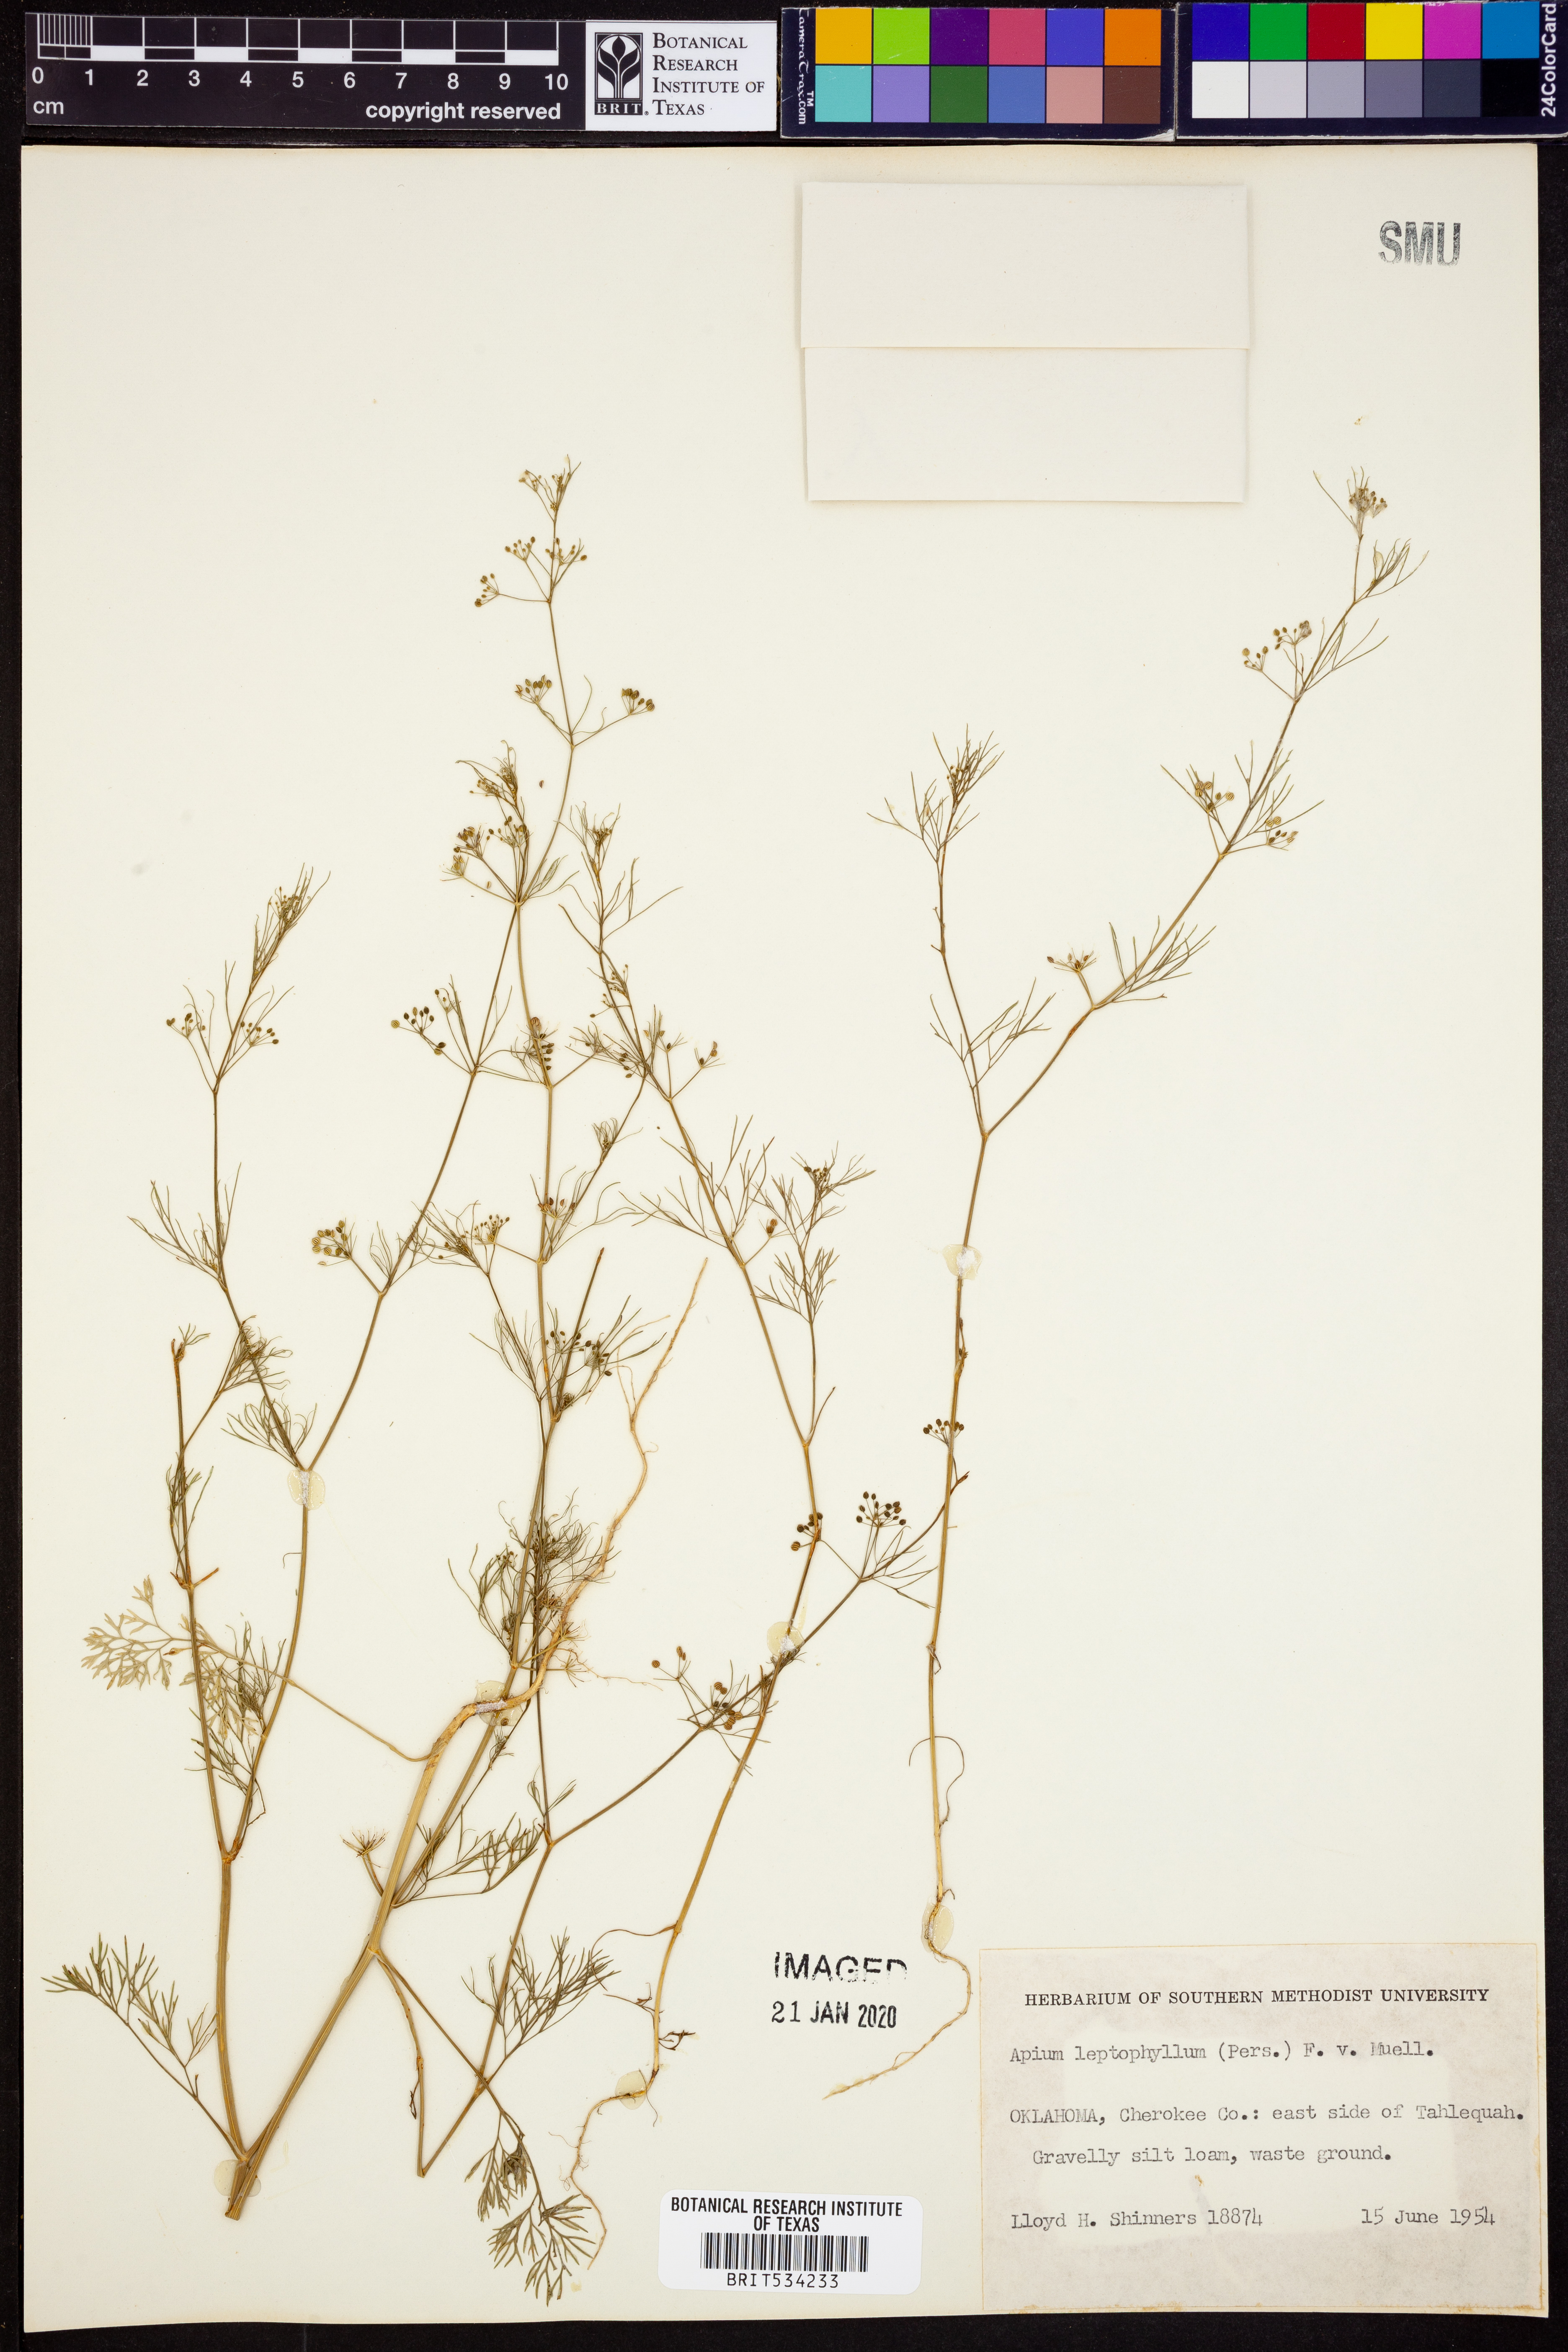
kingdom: Plantae
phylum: Tracheophyta
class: Magnoliopsida
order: Apiales
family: Apiaceae
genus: Cyclospermum
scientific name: Cyclospermum leptophyllum
